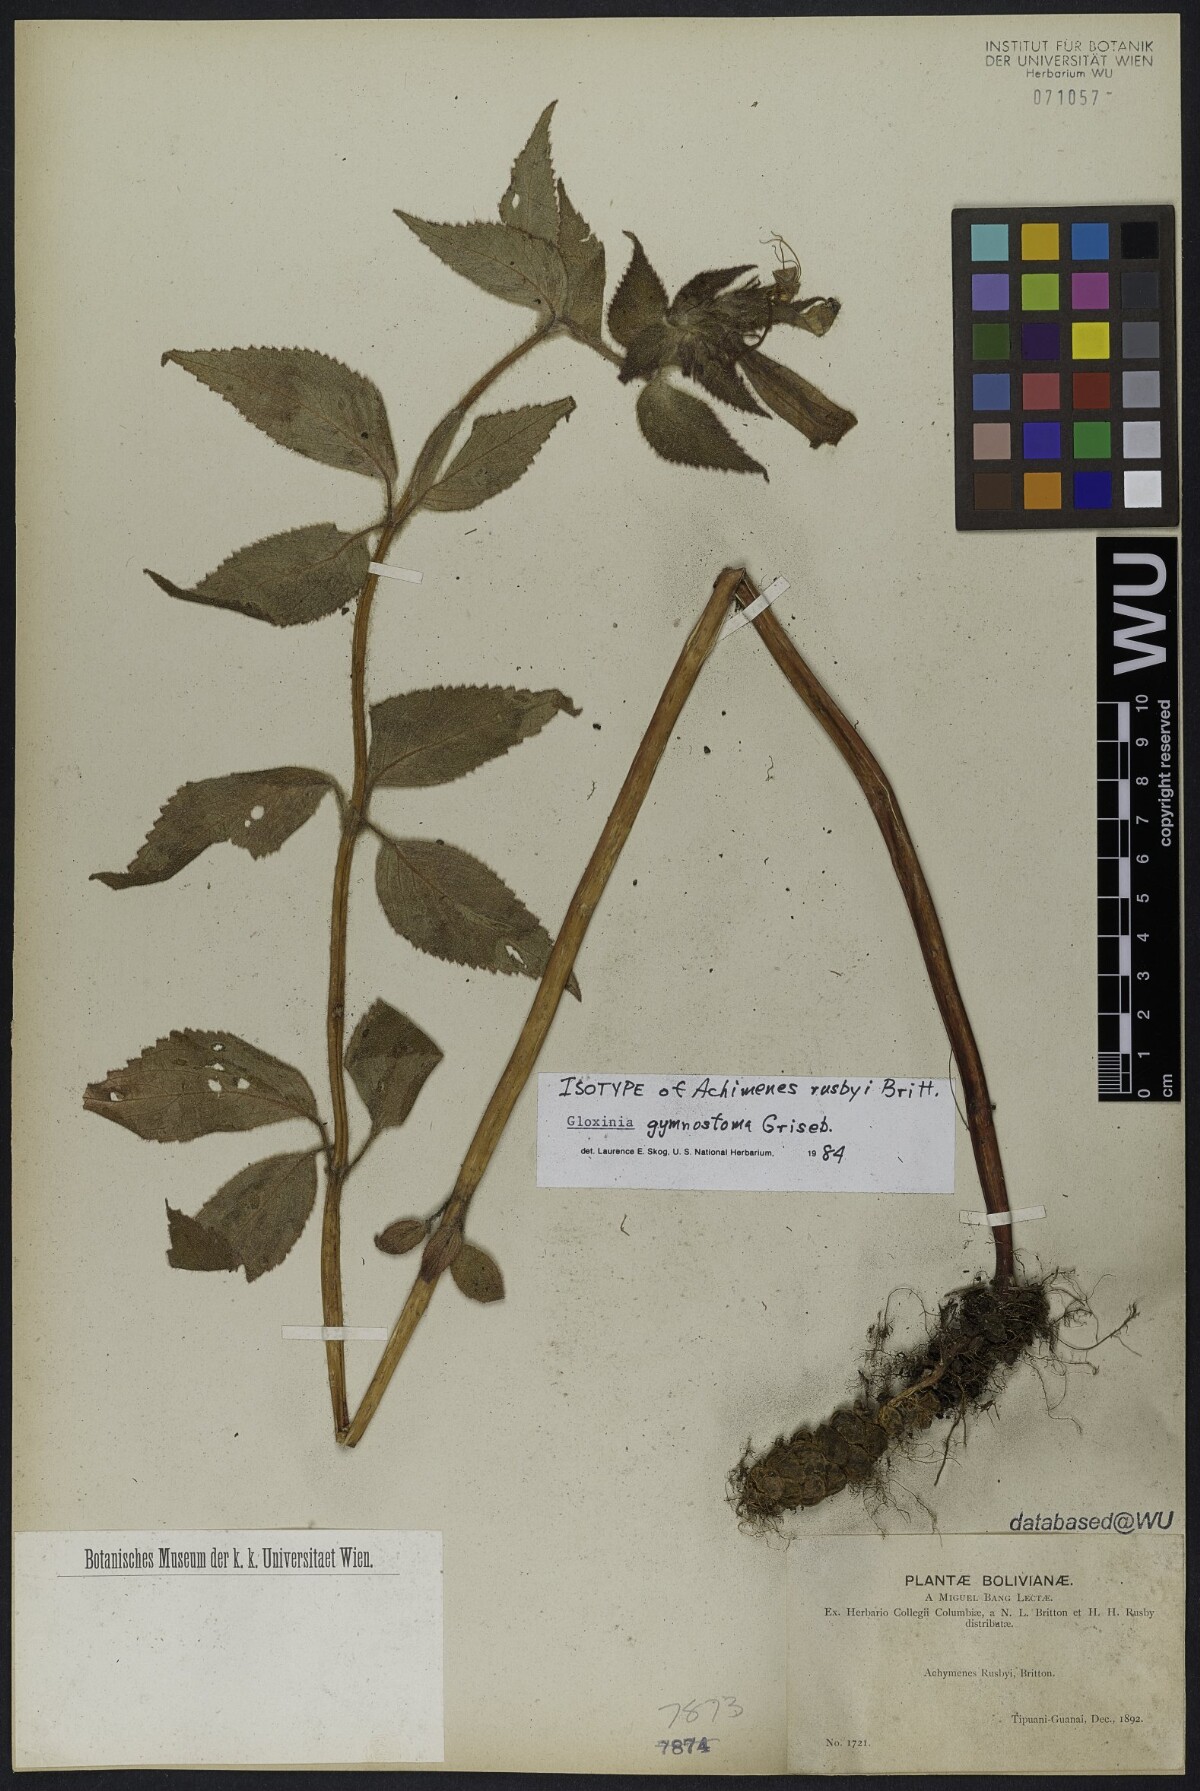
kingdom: Plantae
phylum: Tracheophyta
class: Magnoliopsida
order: Lamiales
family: Gesneriaceae
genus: Seemannia
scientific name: Seemannia gymnostoma
